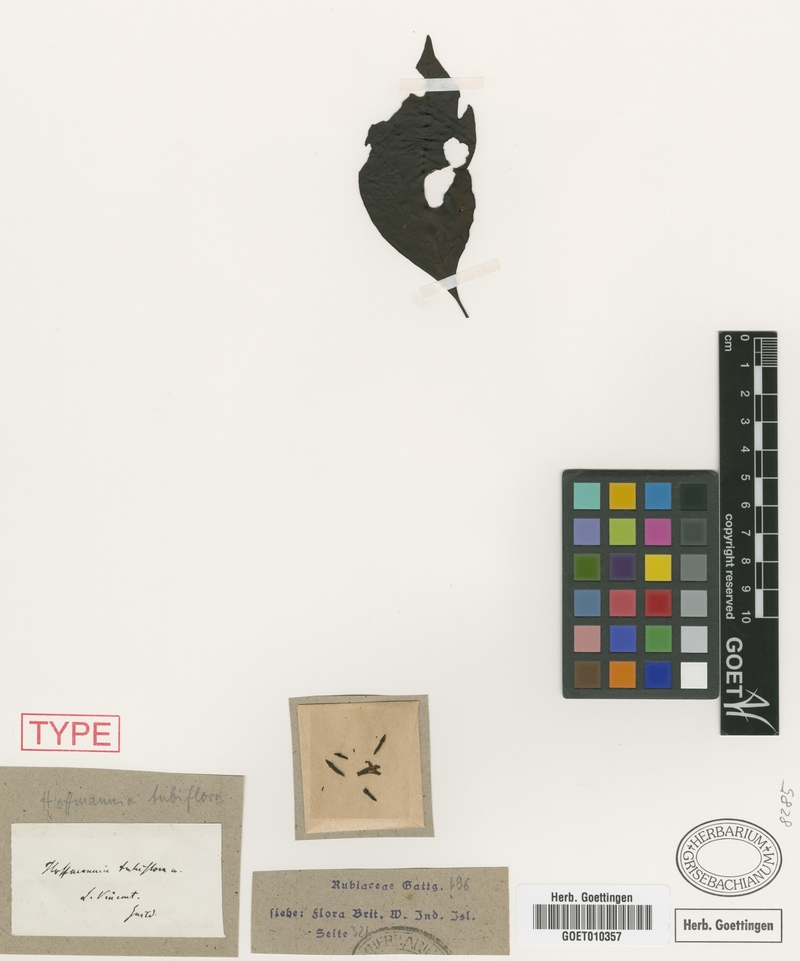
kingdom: Plantae
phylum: Tracheophyta
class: Magnoliopsida
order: Gentianales
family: Rubiaceae
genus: Hoffmannia
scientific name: Hoffmannia tubiflora
